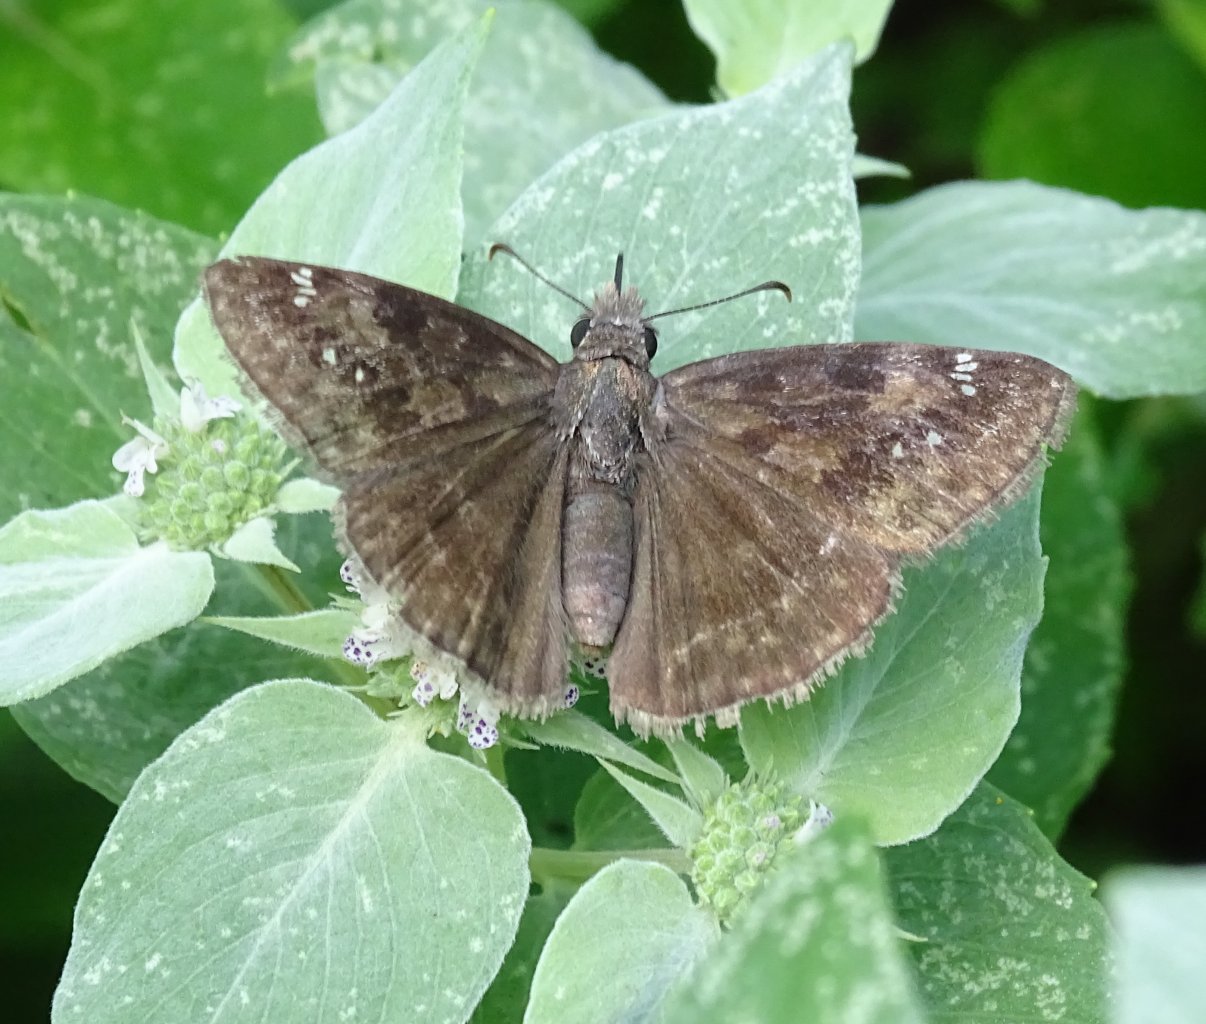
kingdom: Animalia
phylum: Arthropoda
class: Insecta
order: Lepidoptera
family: Hesperiidae
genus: Gesta
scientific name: Gesta
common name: Wild Indigo Duskywing
